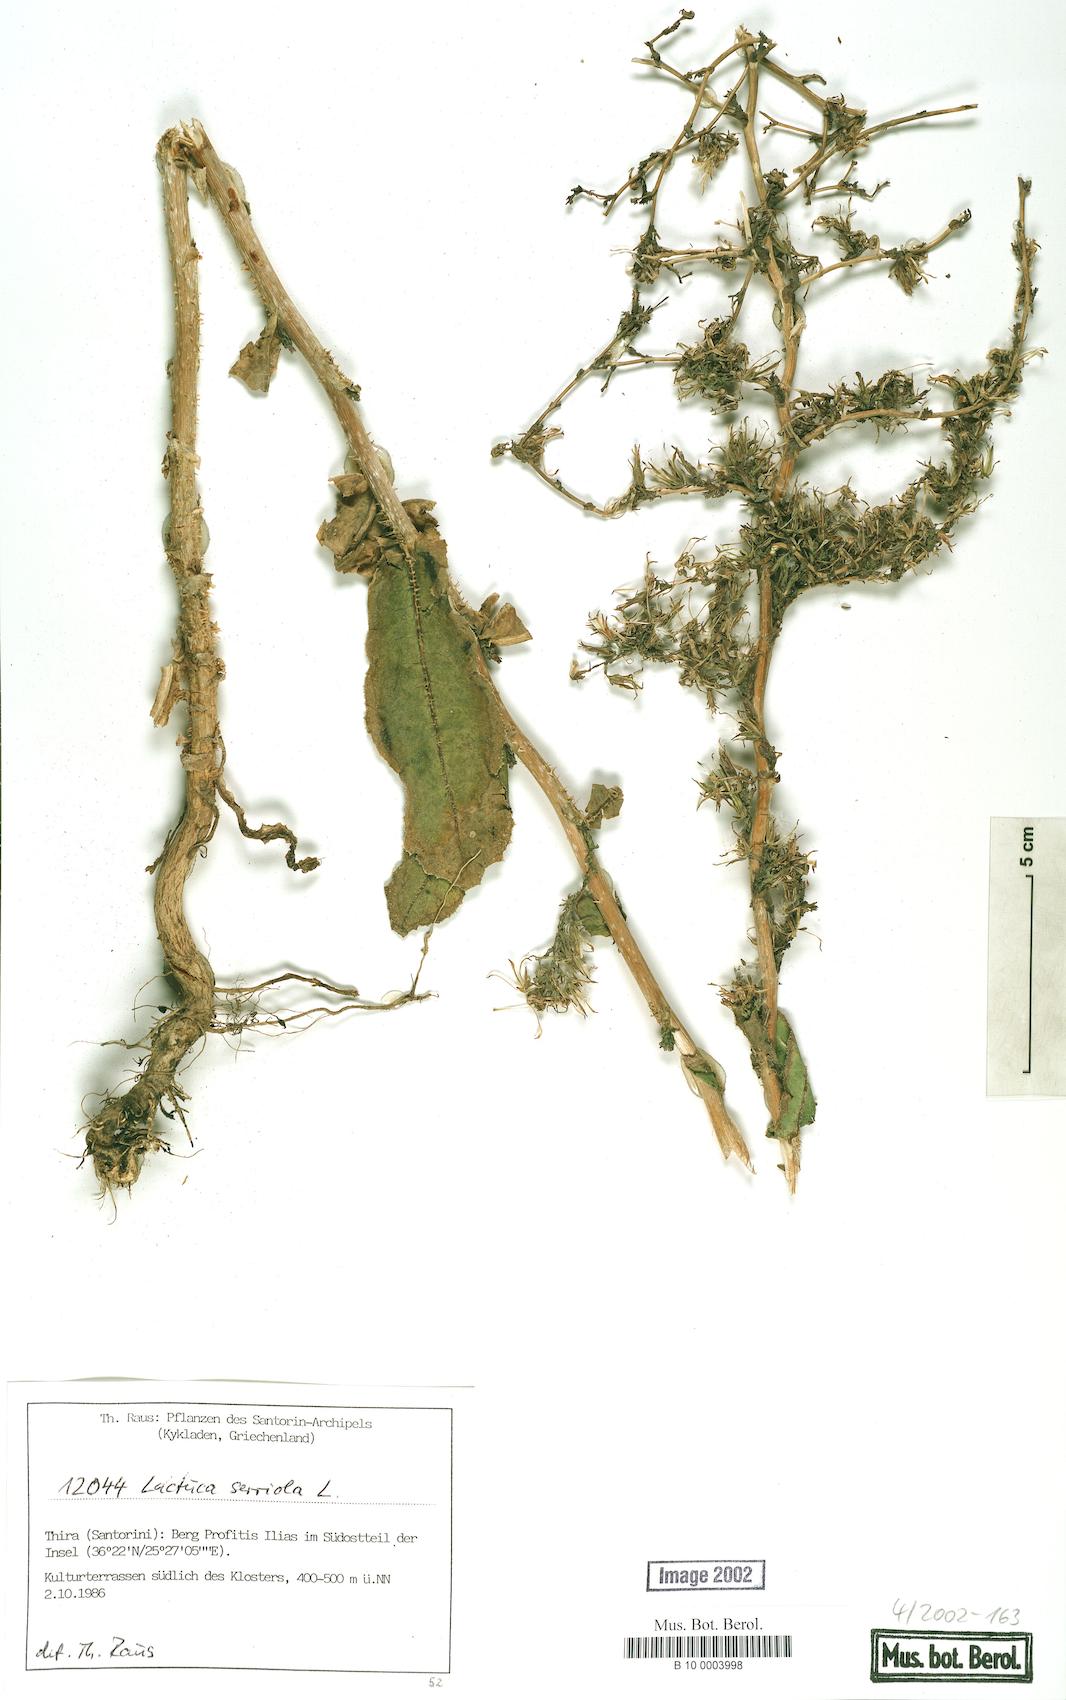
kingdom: Plantae
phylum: Tracheophyta
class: Magnoliopsida
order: Asterales
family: Asteraceae
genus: Lactuca
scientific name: Lactuca serriola
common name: Prickly lettuce
